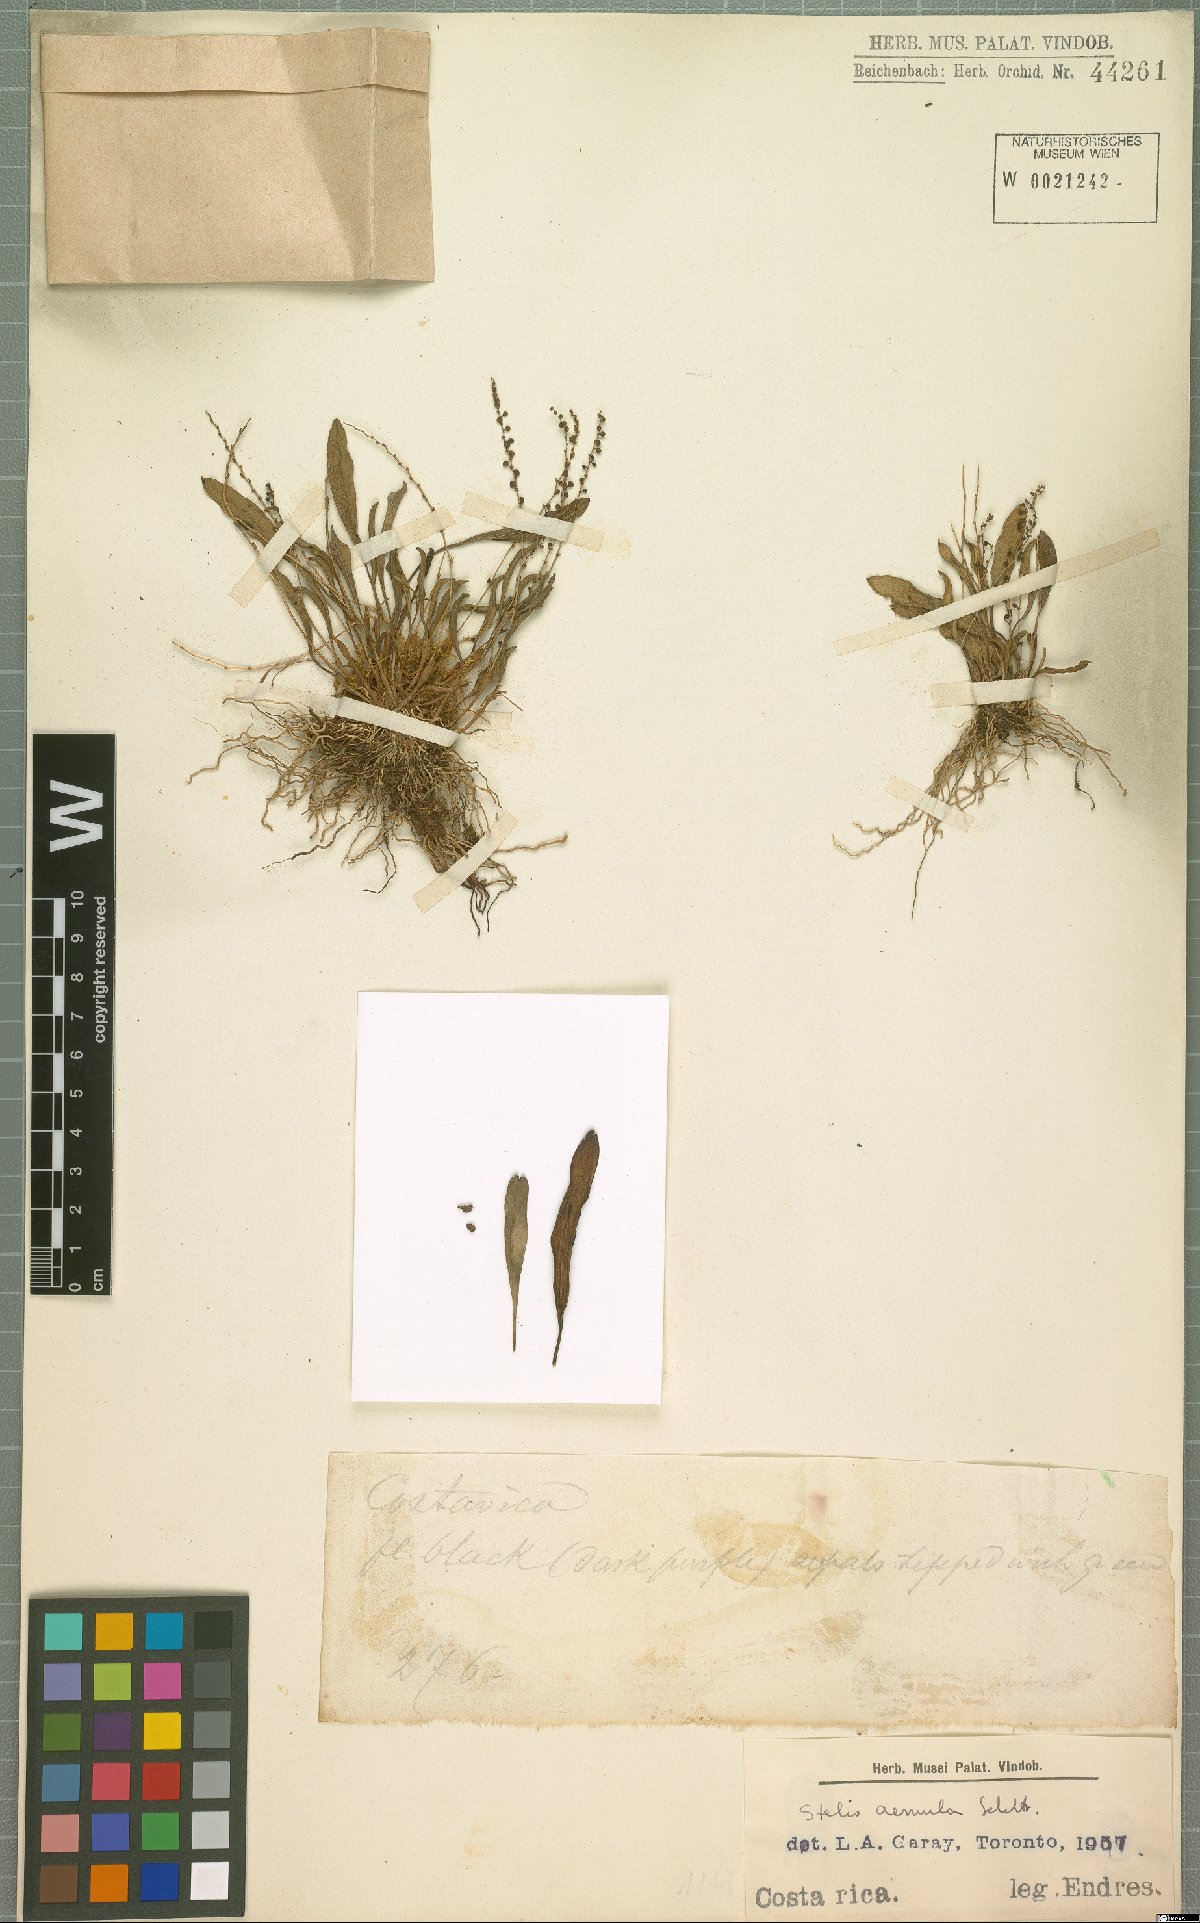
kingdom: Plantae
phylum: Tracheophyta
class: Liliopsida
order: Asparagales
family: Orchidaceae
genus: Stelis
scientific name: Stelis aemula
